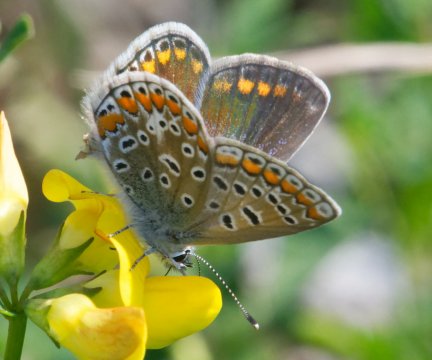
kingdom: Animalia
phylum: Arthropoda
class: Insecta
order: Lepidoptera
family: Lycaenidae
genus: Polyommatus
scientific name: Polyommatus icarus
